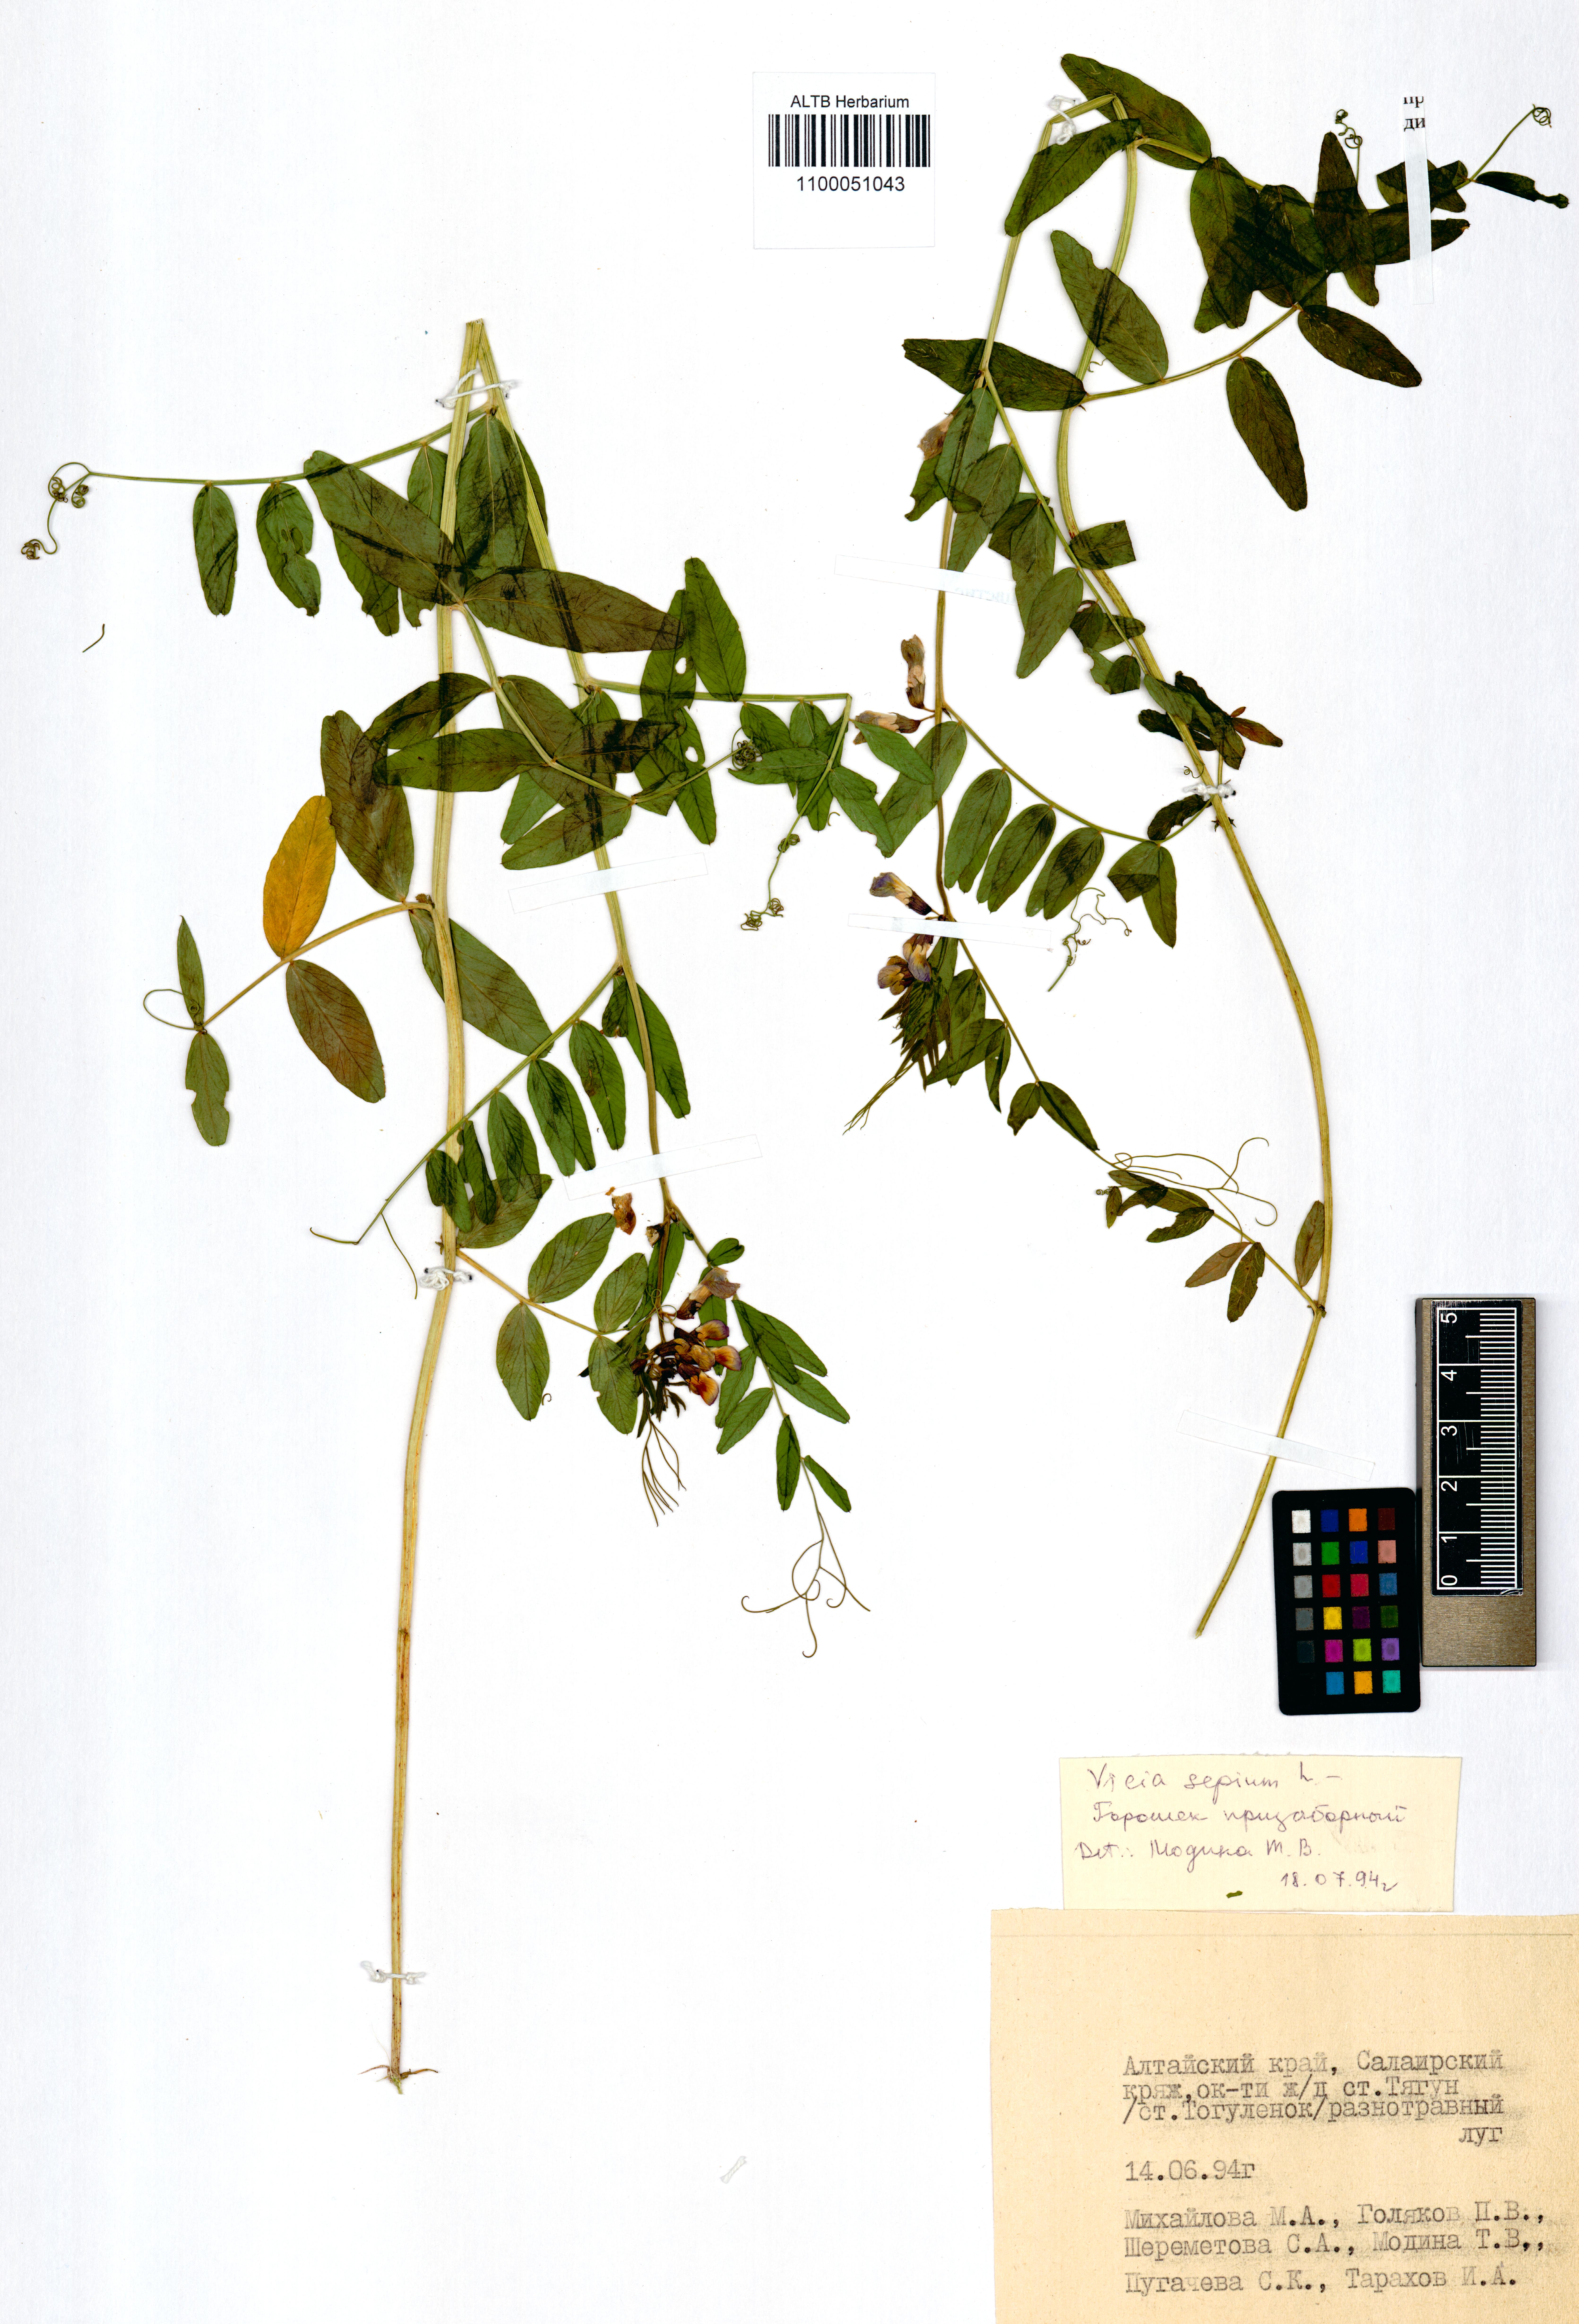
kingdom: Plantae
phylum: Tracheophyta
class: Magnoliopsida
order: Fabales
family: Fabaceae
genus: Vicia
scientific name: Vicia sepium
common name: Bush vetch
